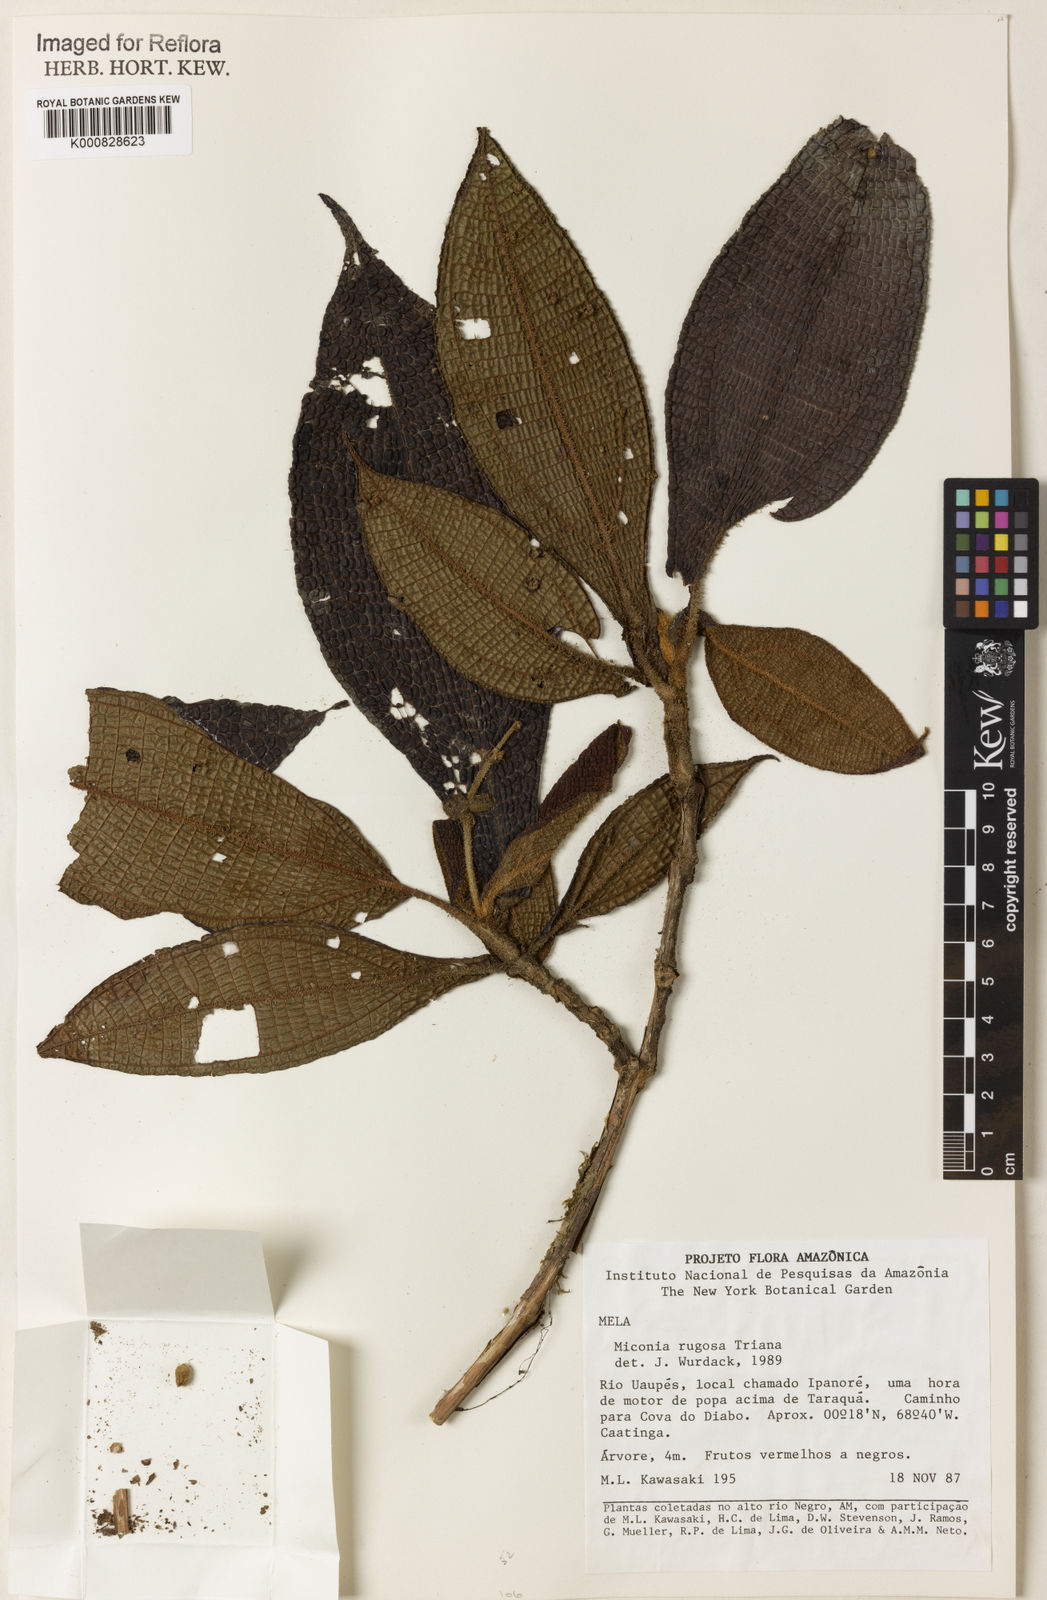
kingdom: Plantae
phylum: Tracheophyta
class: Magnoliopsida
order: Myrtales
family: Melastomataceae
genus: Miconia
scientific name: Miconia rugosa
